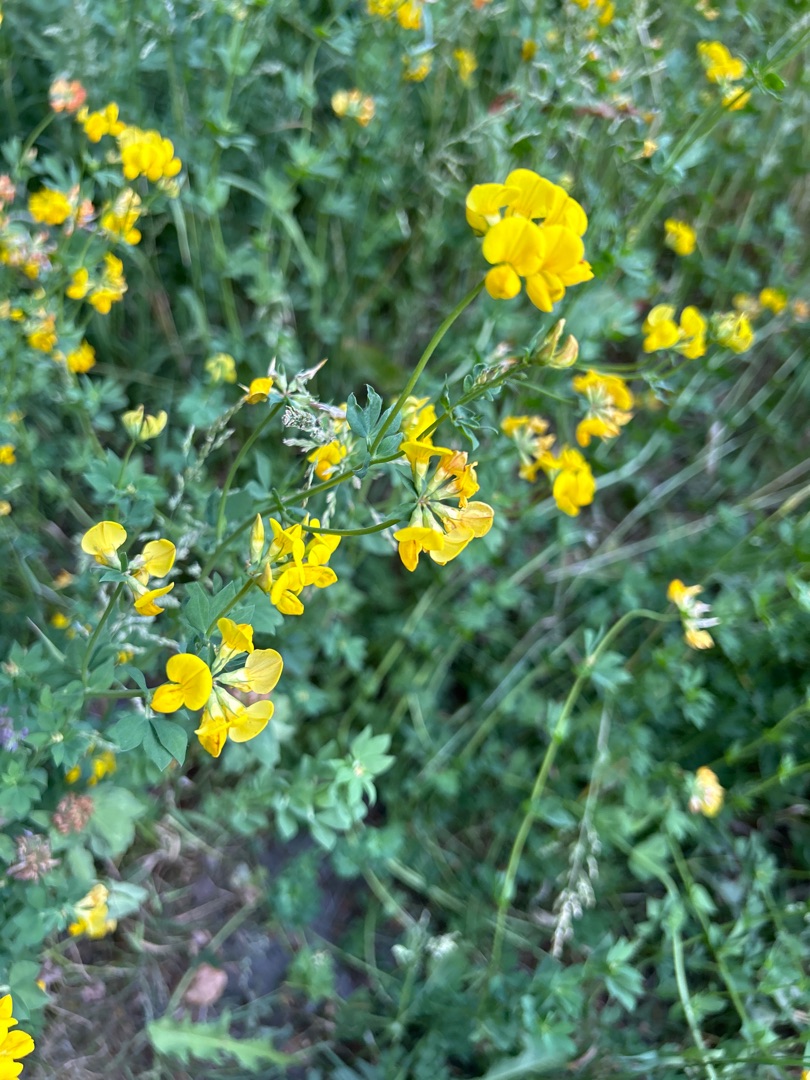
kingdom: Plantae
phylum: Tracheophyta
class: Magnoliopsida
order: Fabales
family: Fabaceae
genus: Lotus
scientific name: Lotus corniculatus
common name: Almindelig kællingetand
